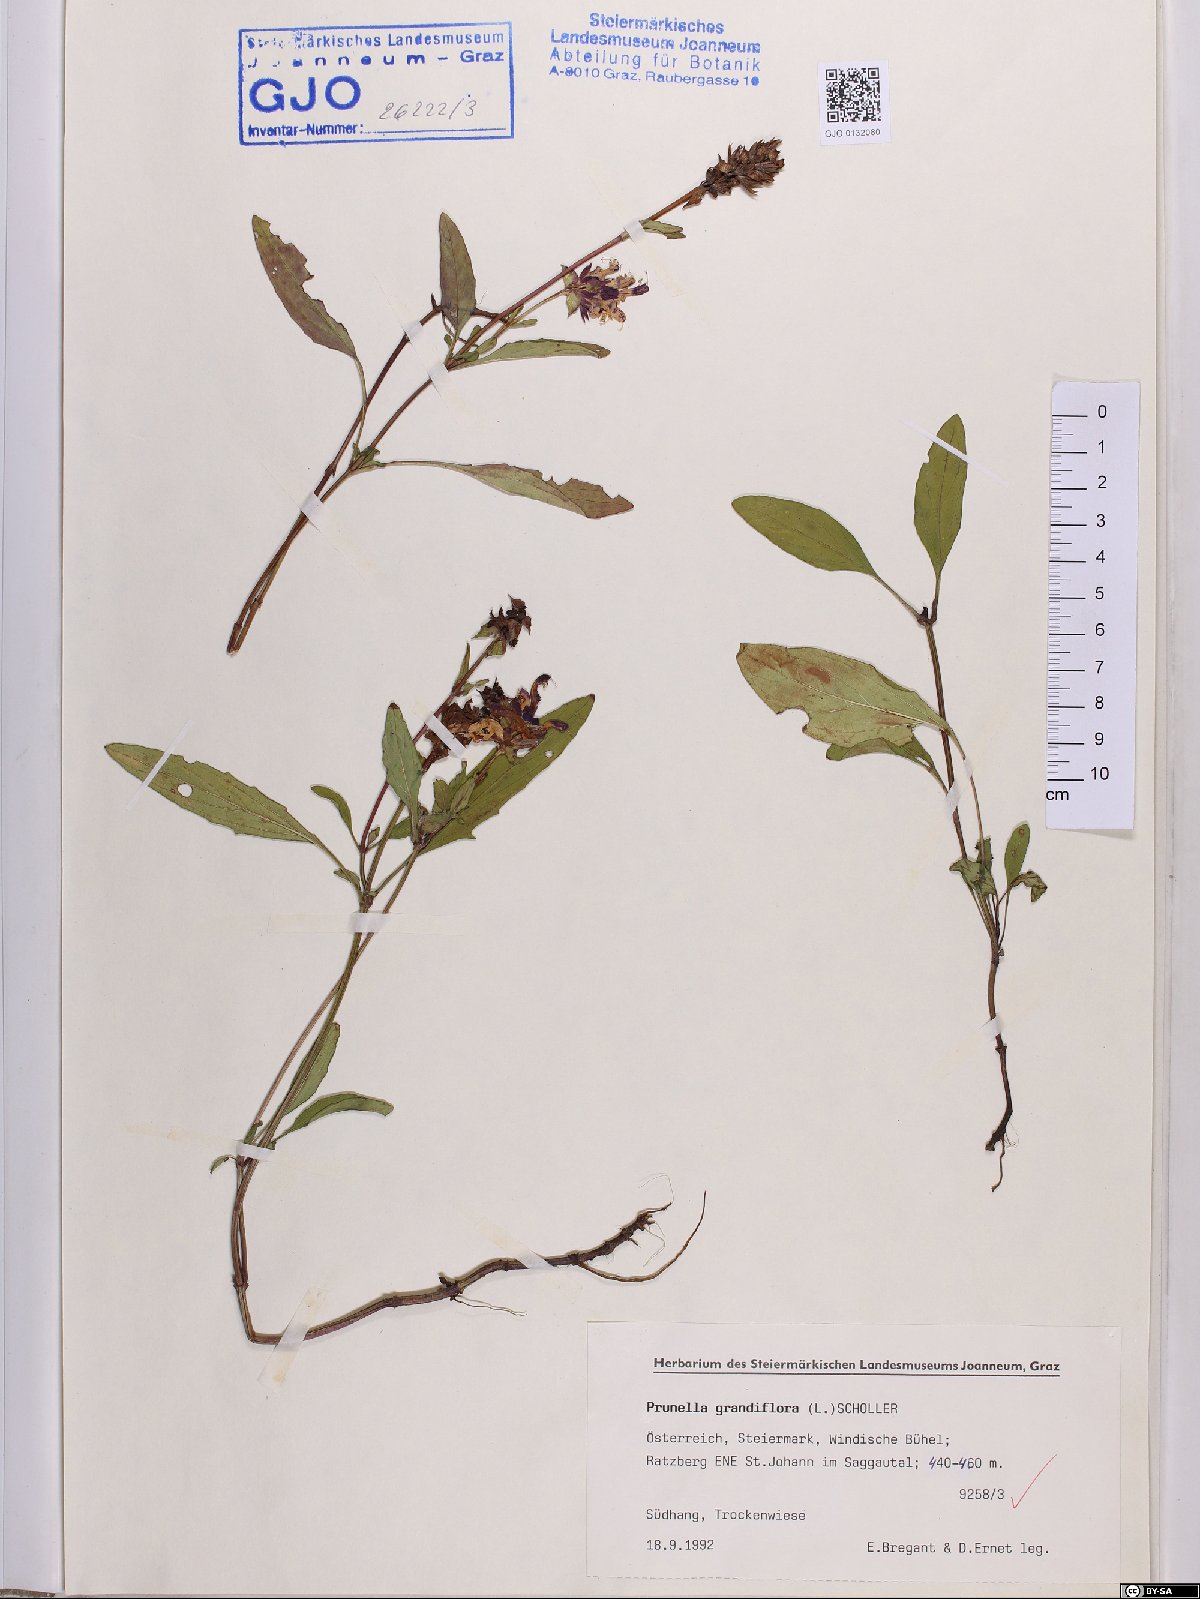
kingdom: Plantae
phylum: Tracheophyta
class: Magnoliopsida
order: Lamiales
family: Lamiaceae
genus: Prunella
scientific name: Prunella grandiflora
